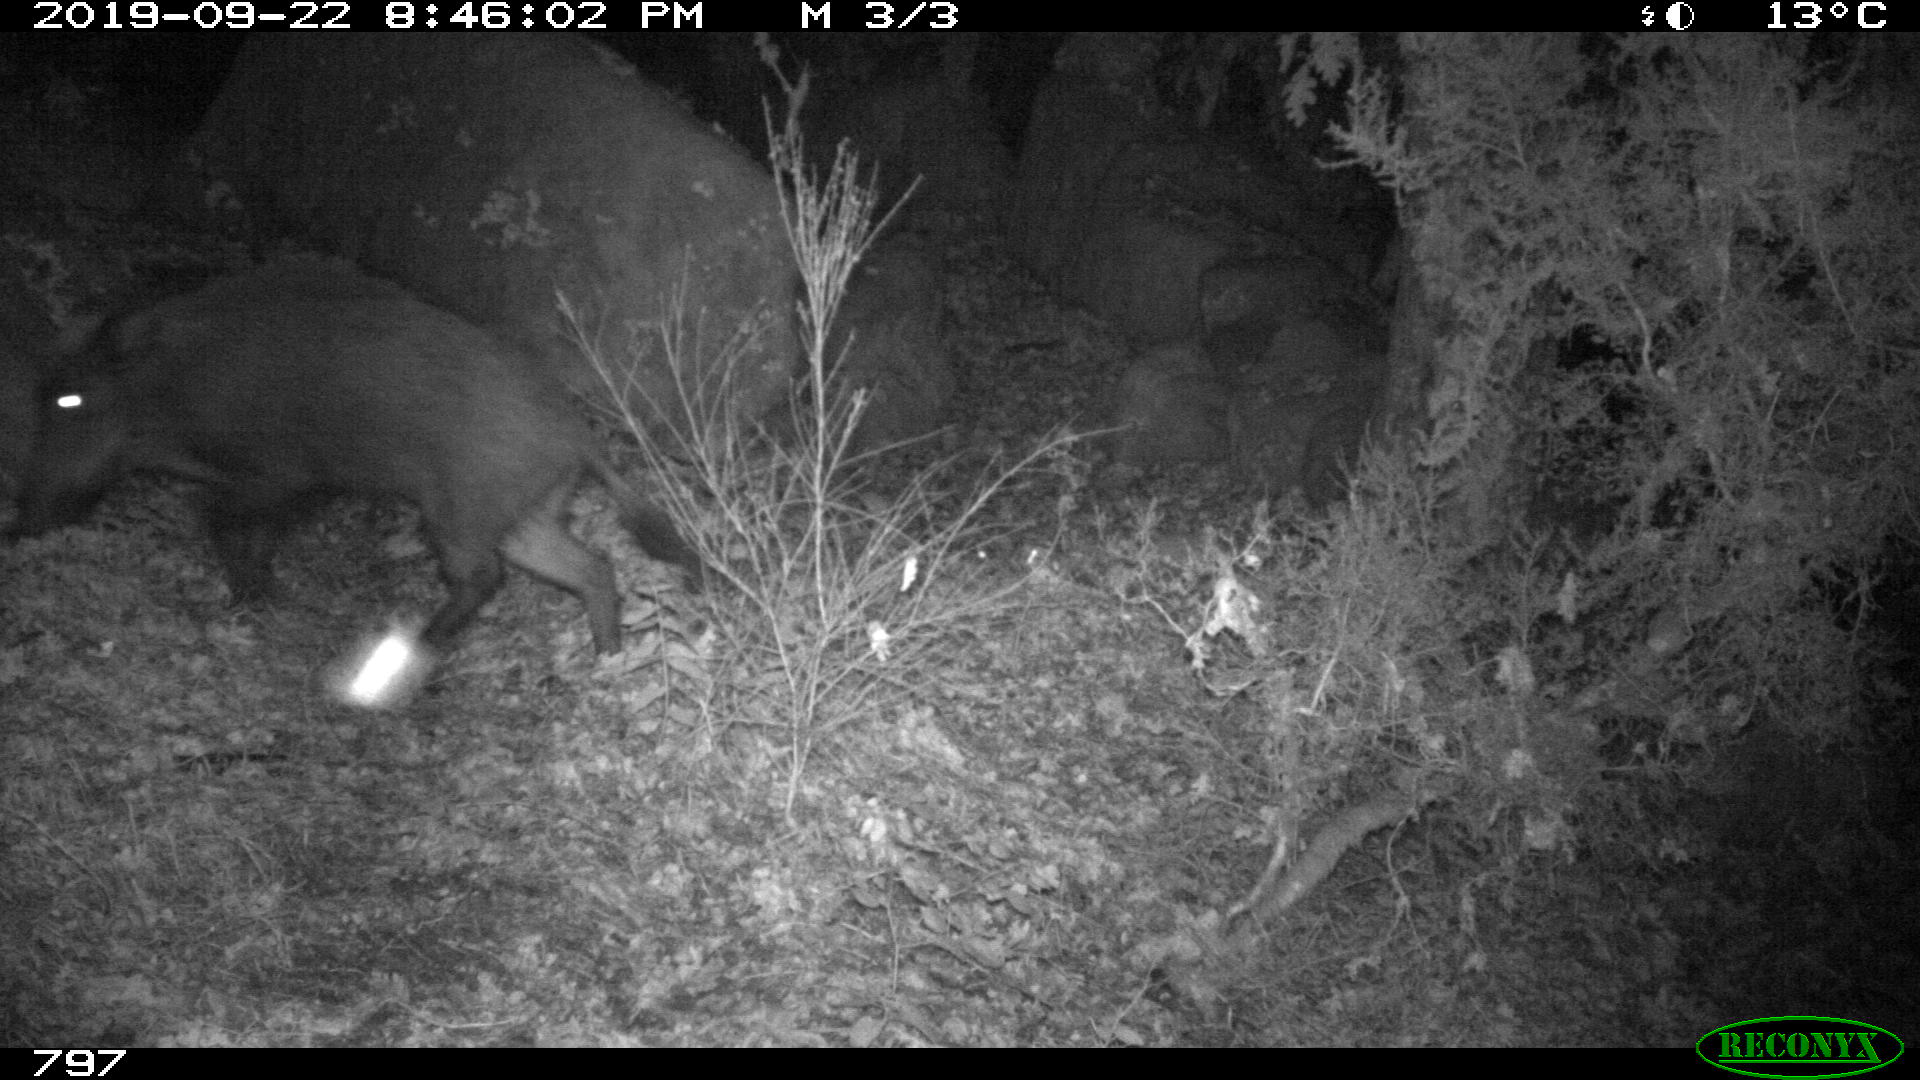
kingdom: Animalia
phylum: Chordata
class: Mammalia
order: Artiodactyla
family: Suidae
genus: Sus
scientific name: Sus scrofa
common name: Wild boar
